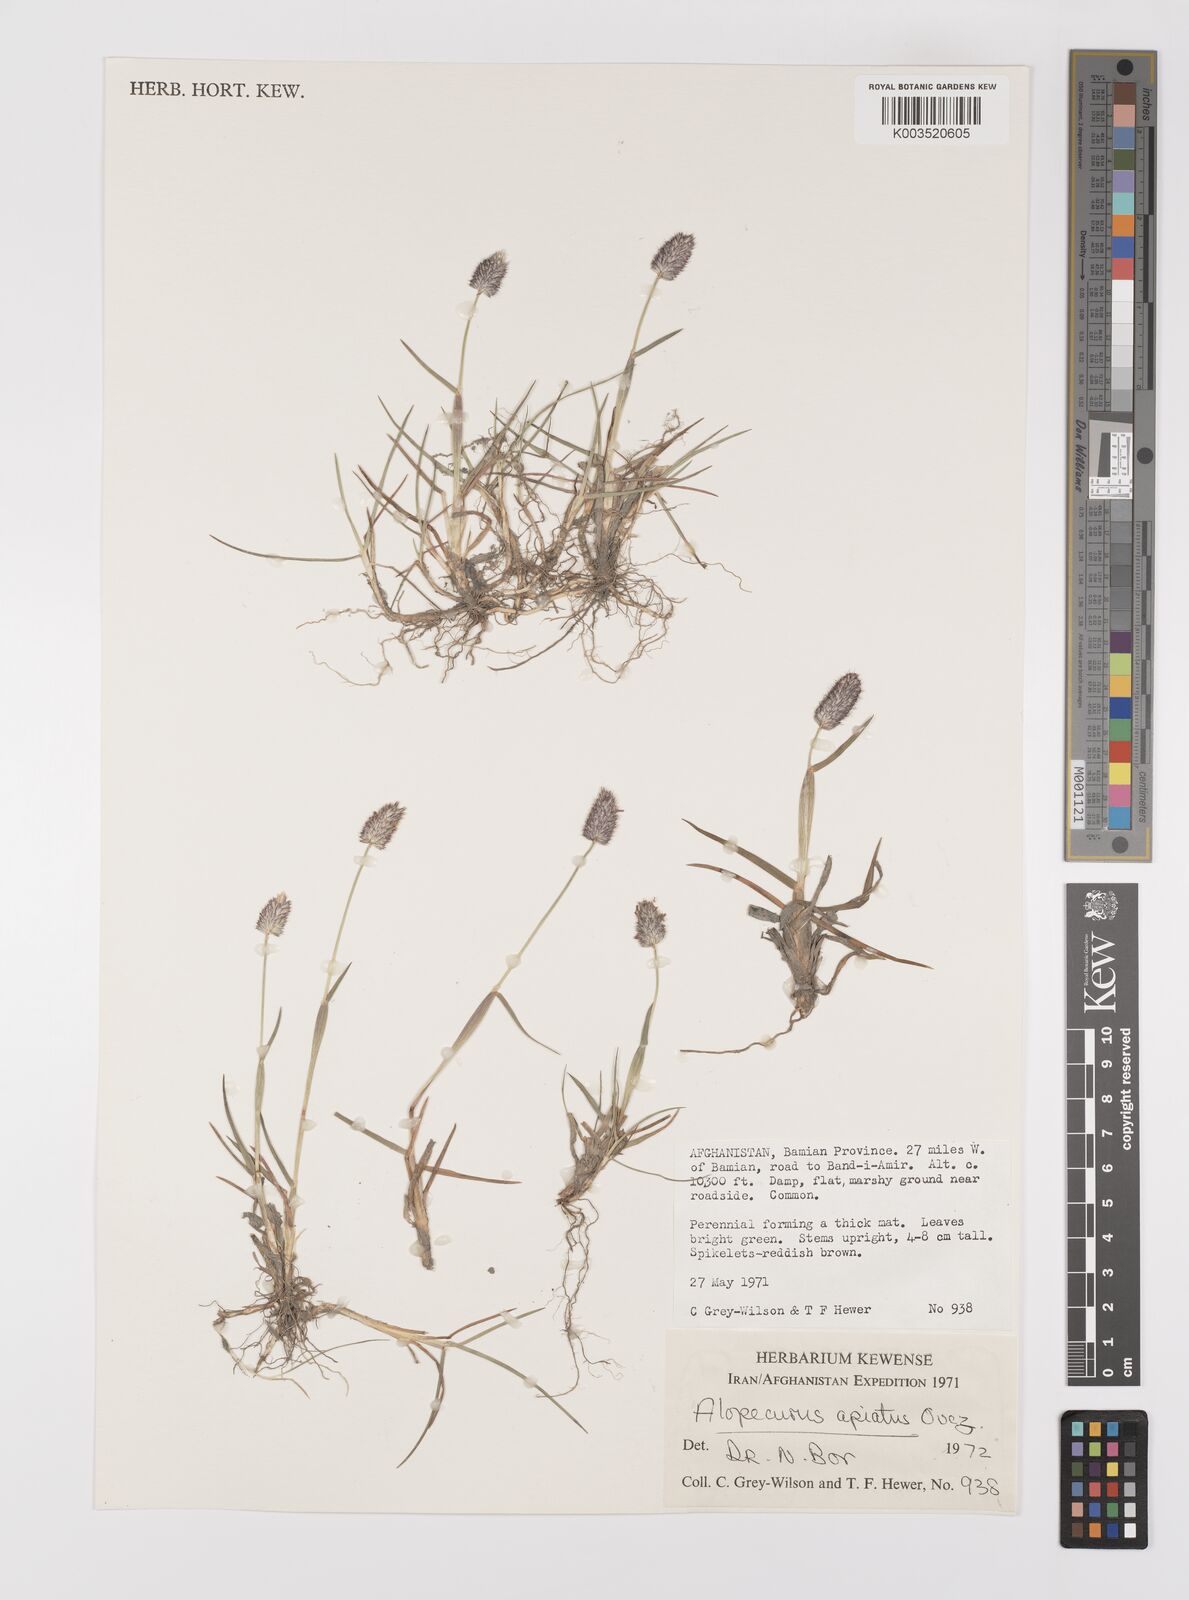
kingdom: Plantae
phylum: Tracheophyta
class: Liliopsida
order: Poales
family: Poaceae
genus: Alopecurus
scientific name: Alopecurus apiatus
